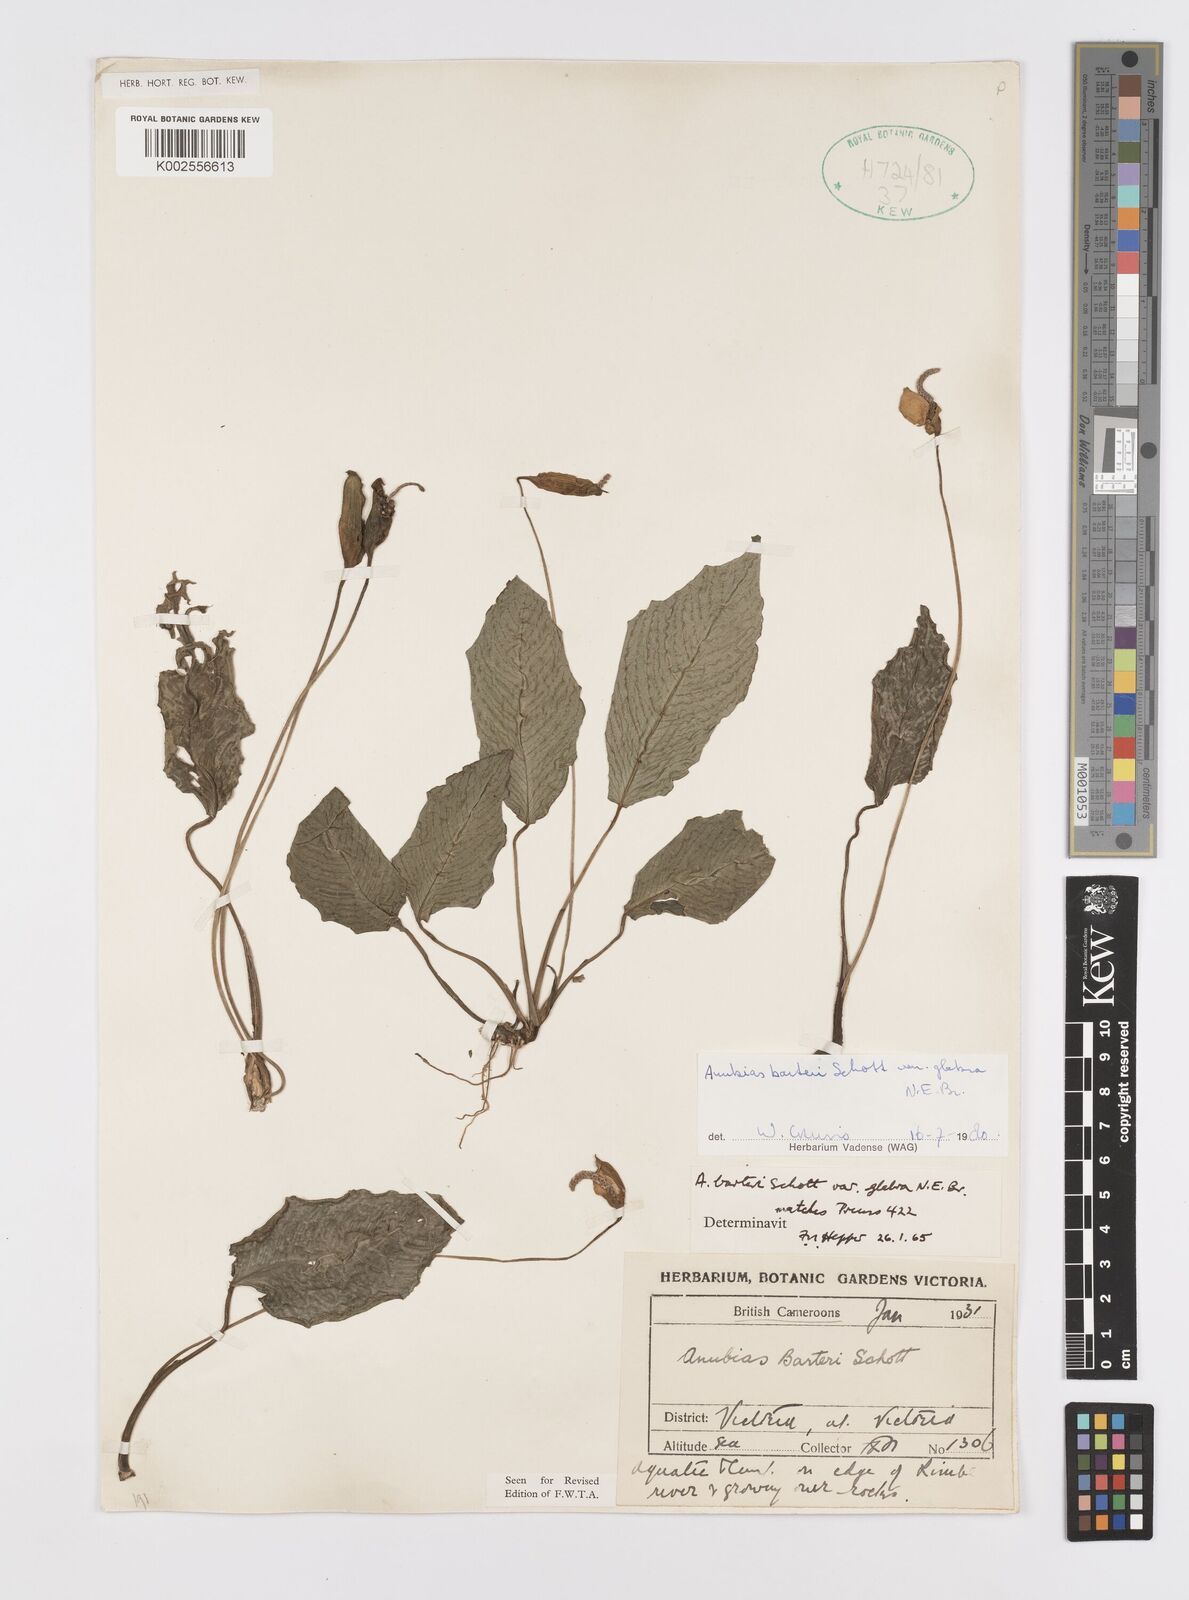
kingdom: Plantae
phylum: Tracheophyta
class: Liliopsida
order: Alismatales
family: Araceae
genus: Anubias
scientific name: Anubias barteri
